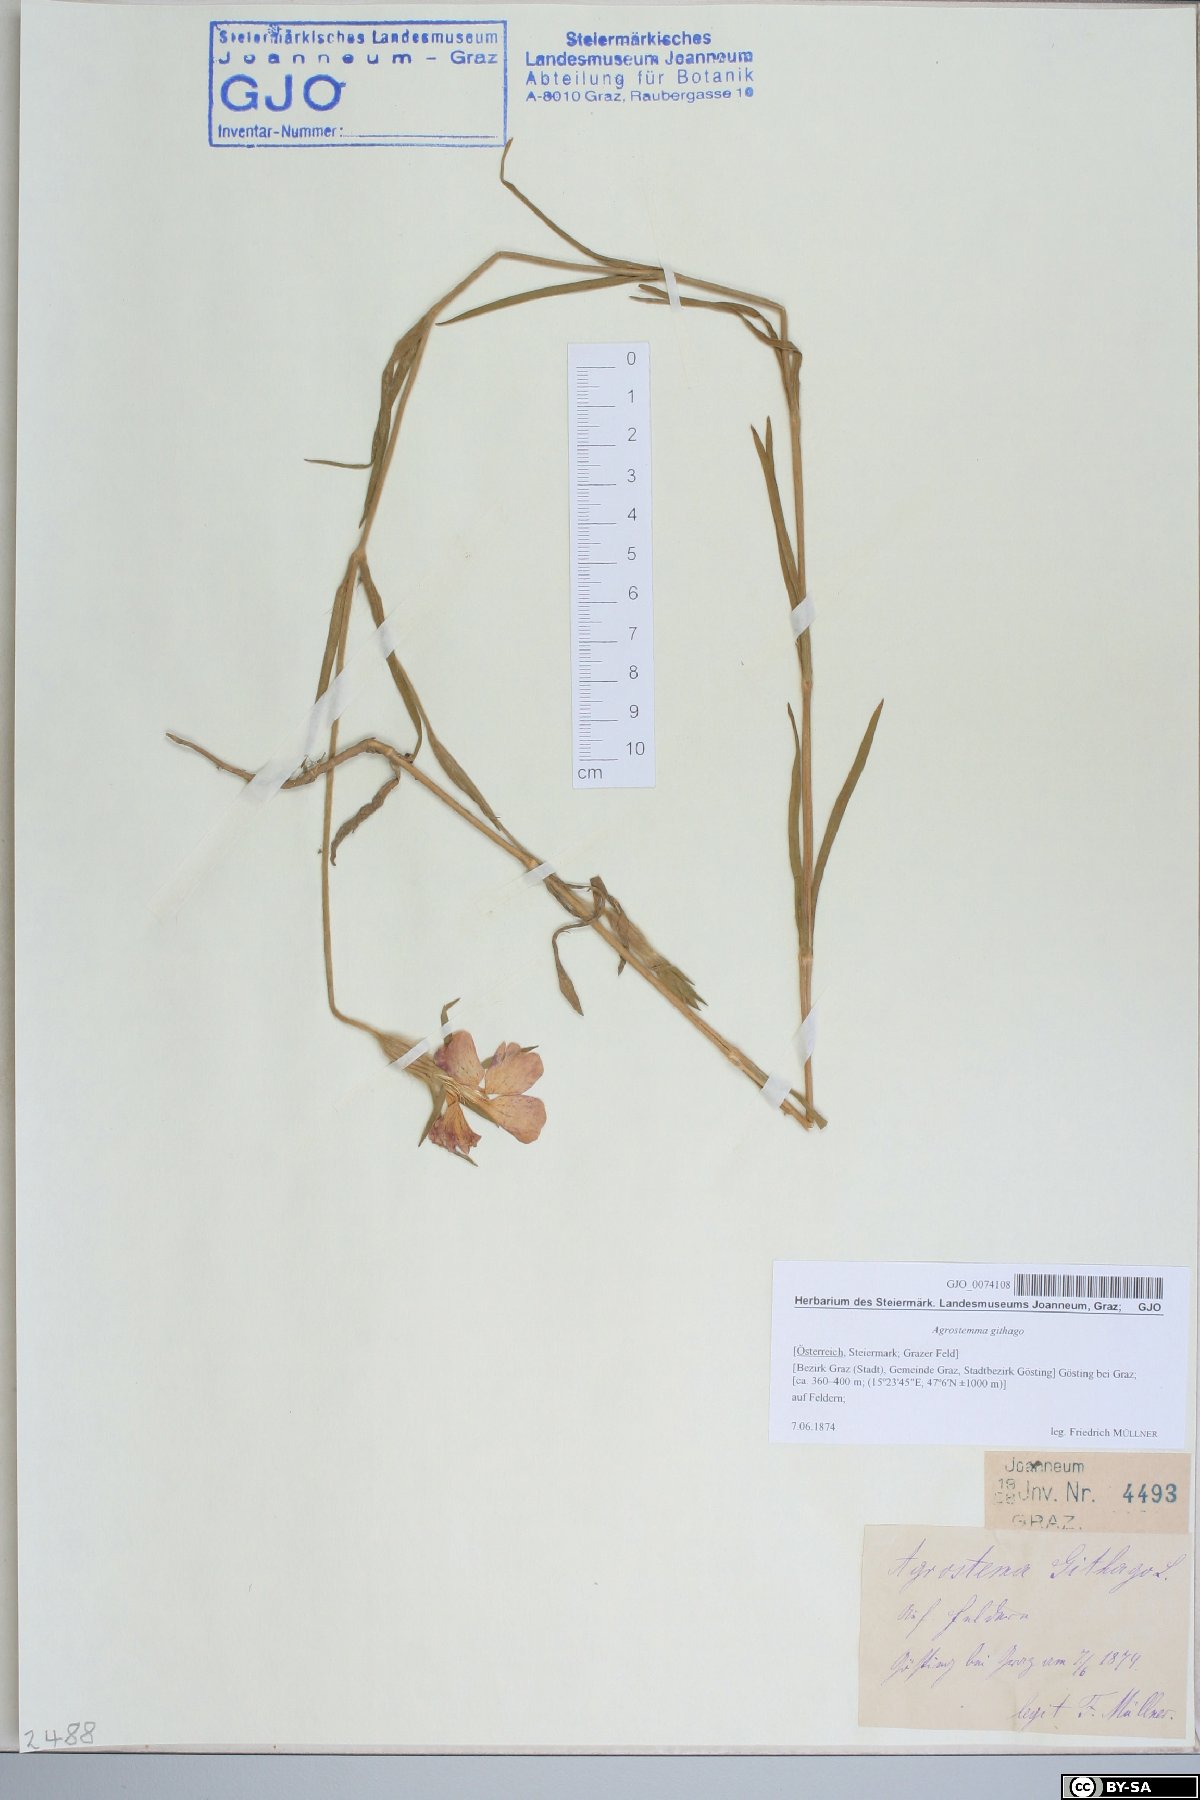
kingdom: Plantae
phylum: Tracheophyta
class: Magnoliopsida
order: Caryophyllales
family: Caryophyllaceae
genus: Agrostemma
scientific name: Agrostemma githago
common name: Common corncockle
